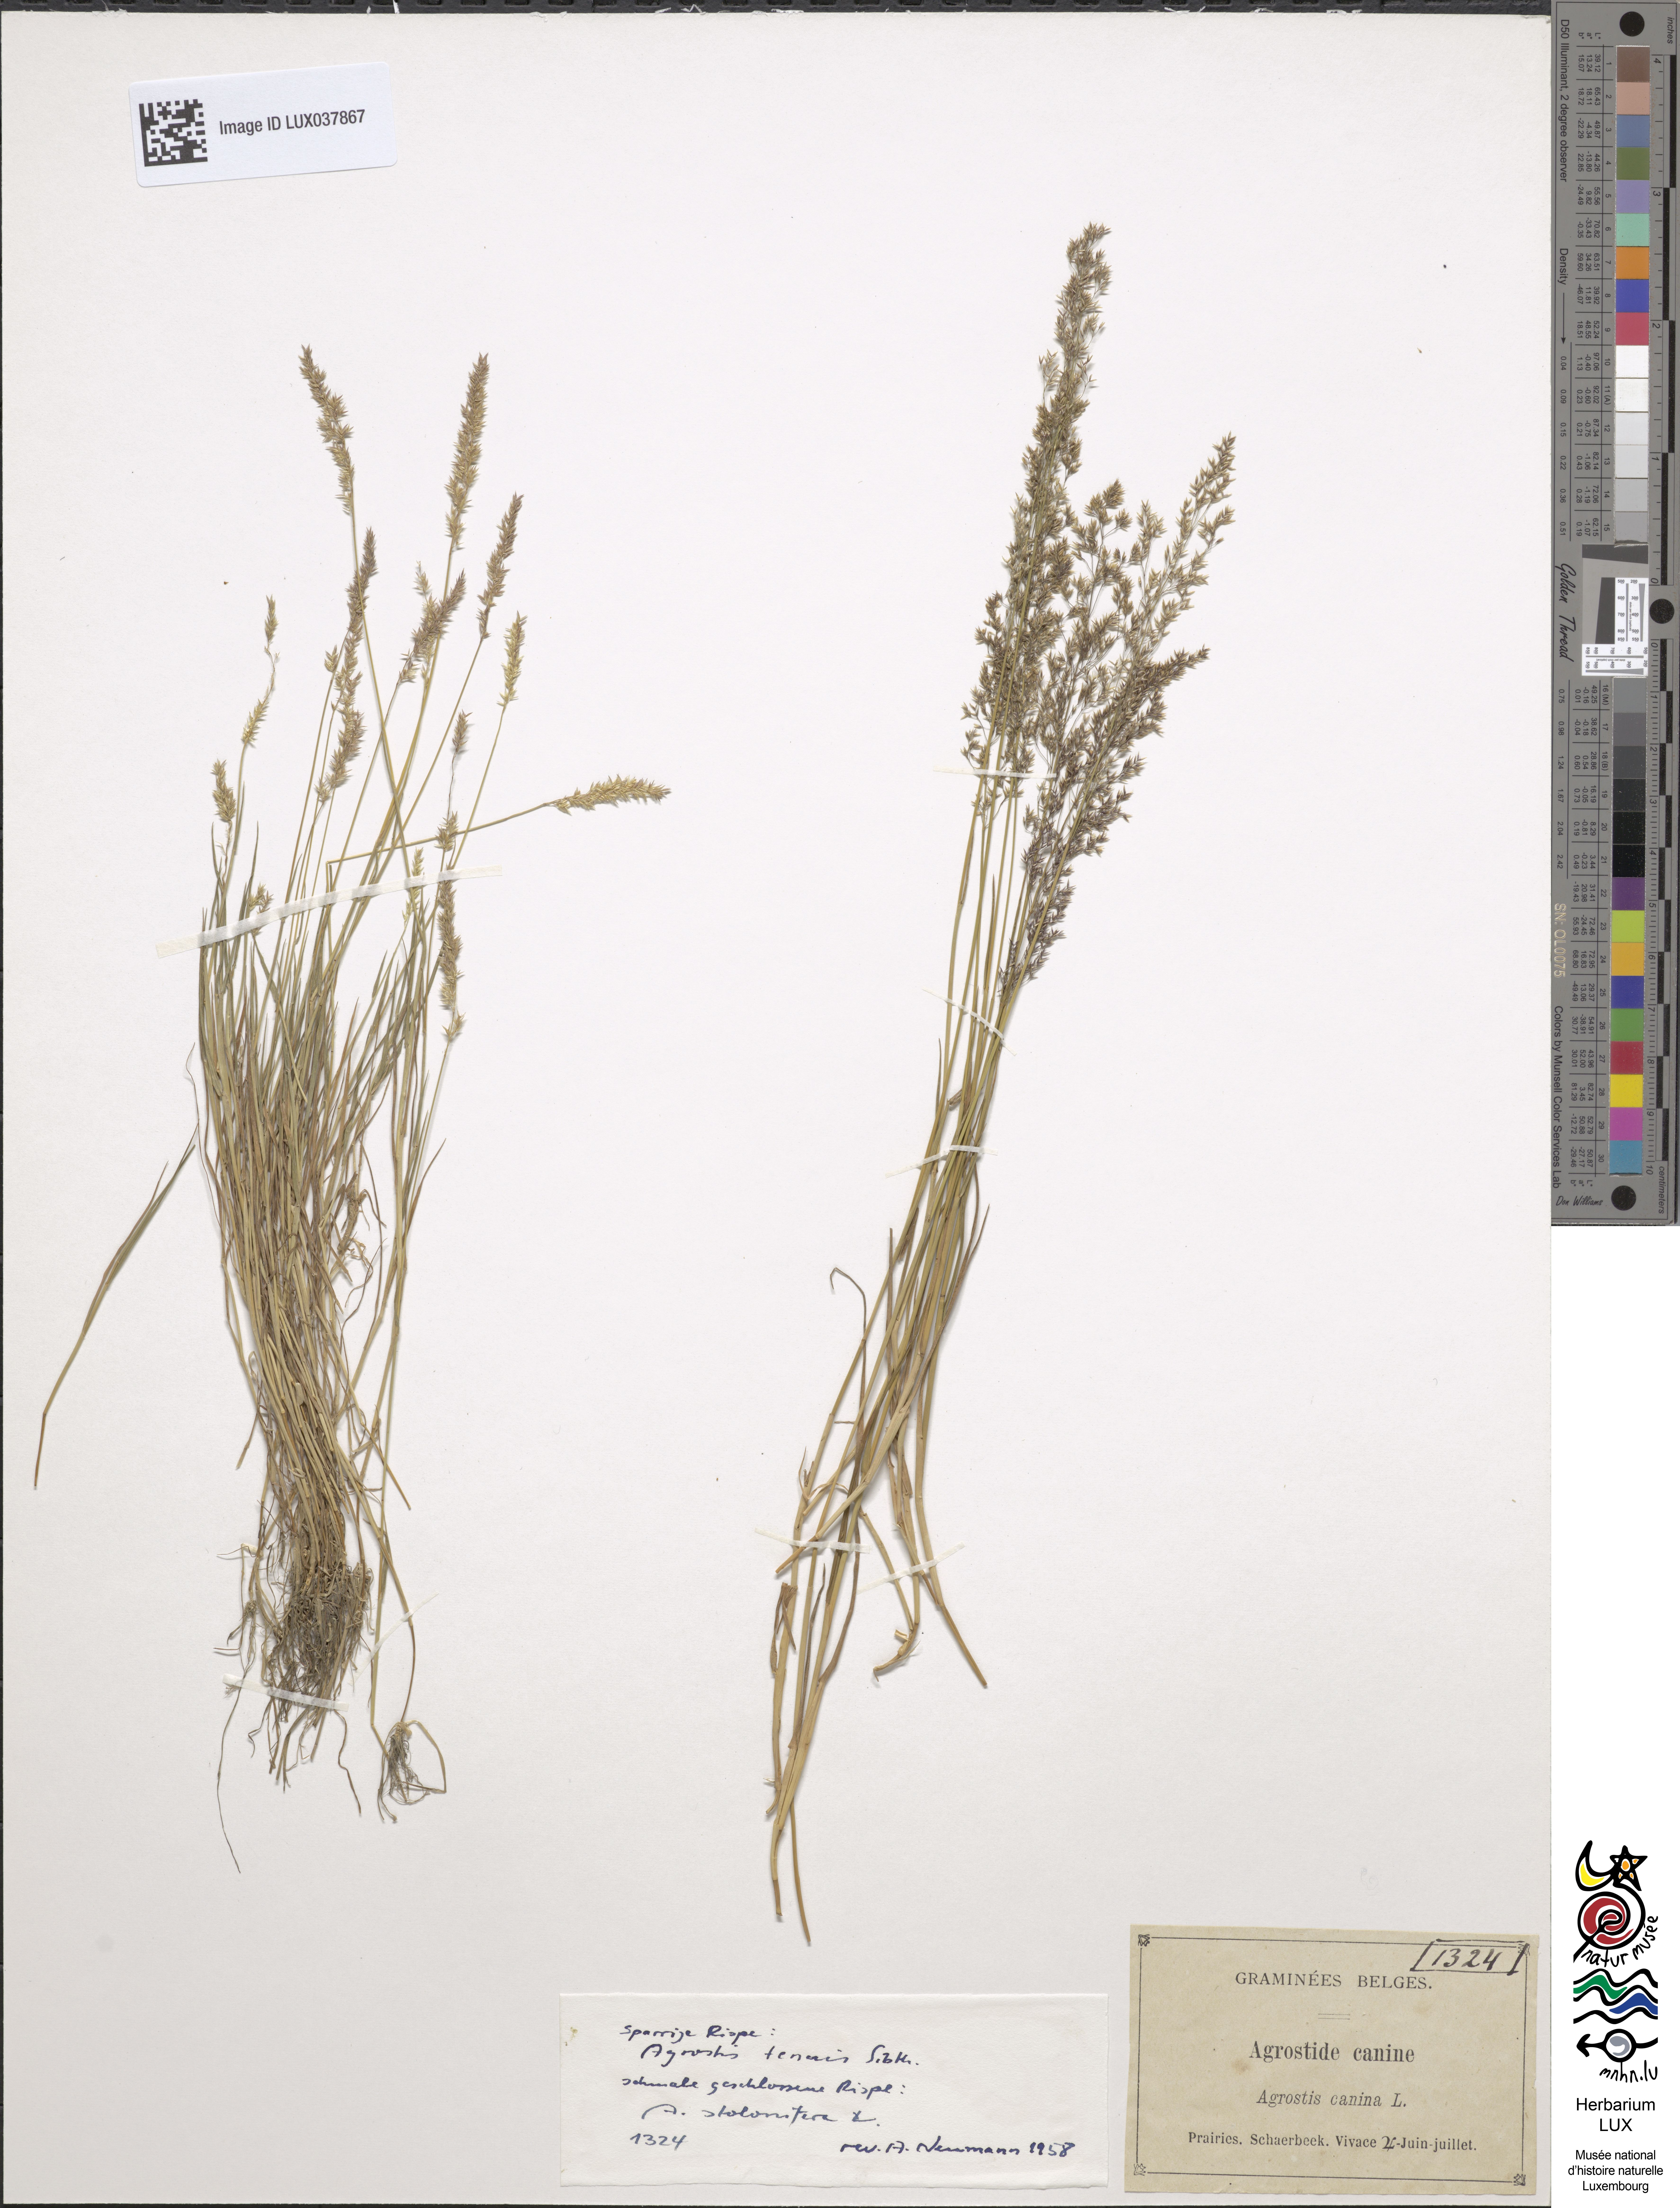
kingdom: Plantae
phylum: Tracheophyta
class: Liliopsida
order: Poales
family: Poaceae
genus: Agrostis
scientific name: Agrostis canina
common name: Velvet bent
